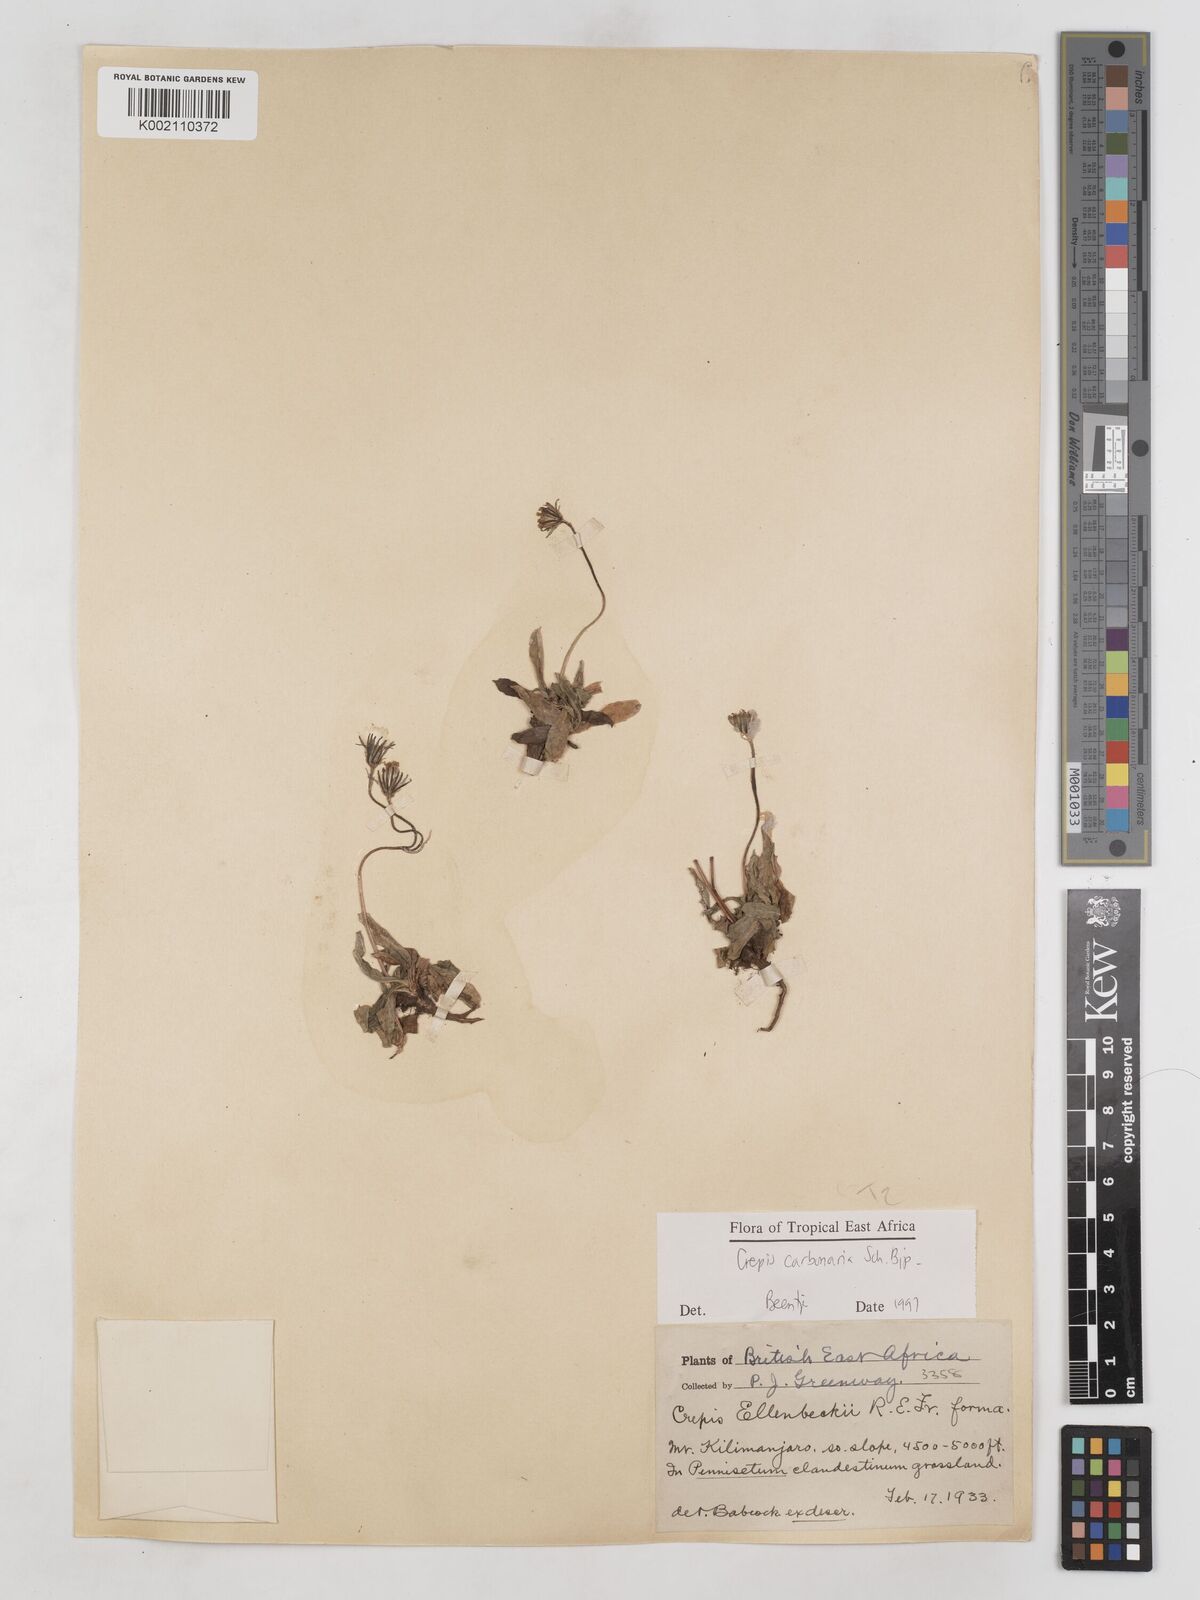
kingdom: Plantae
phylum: Tracheophyta
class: Magnoliopsida
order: Asterales
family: Asteraceae
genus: Crepis
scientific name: Crepis carbonaria
